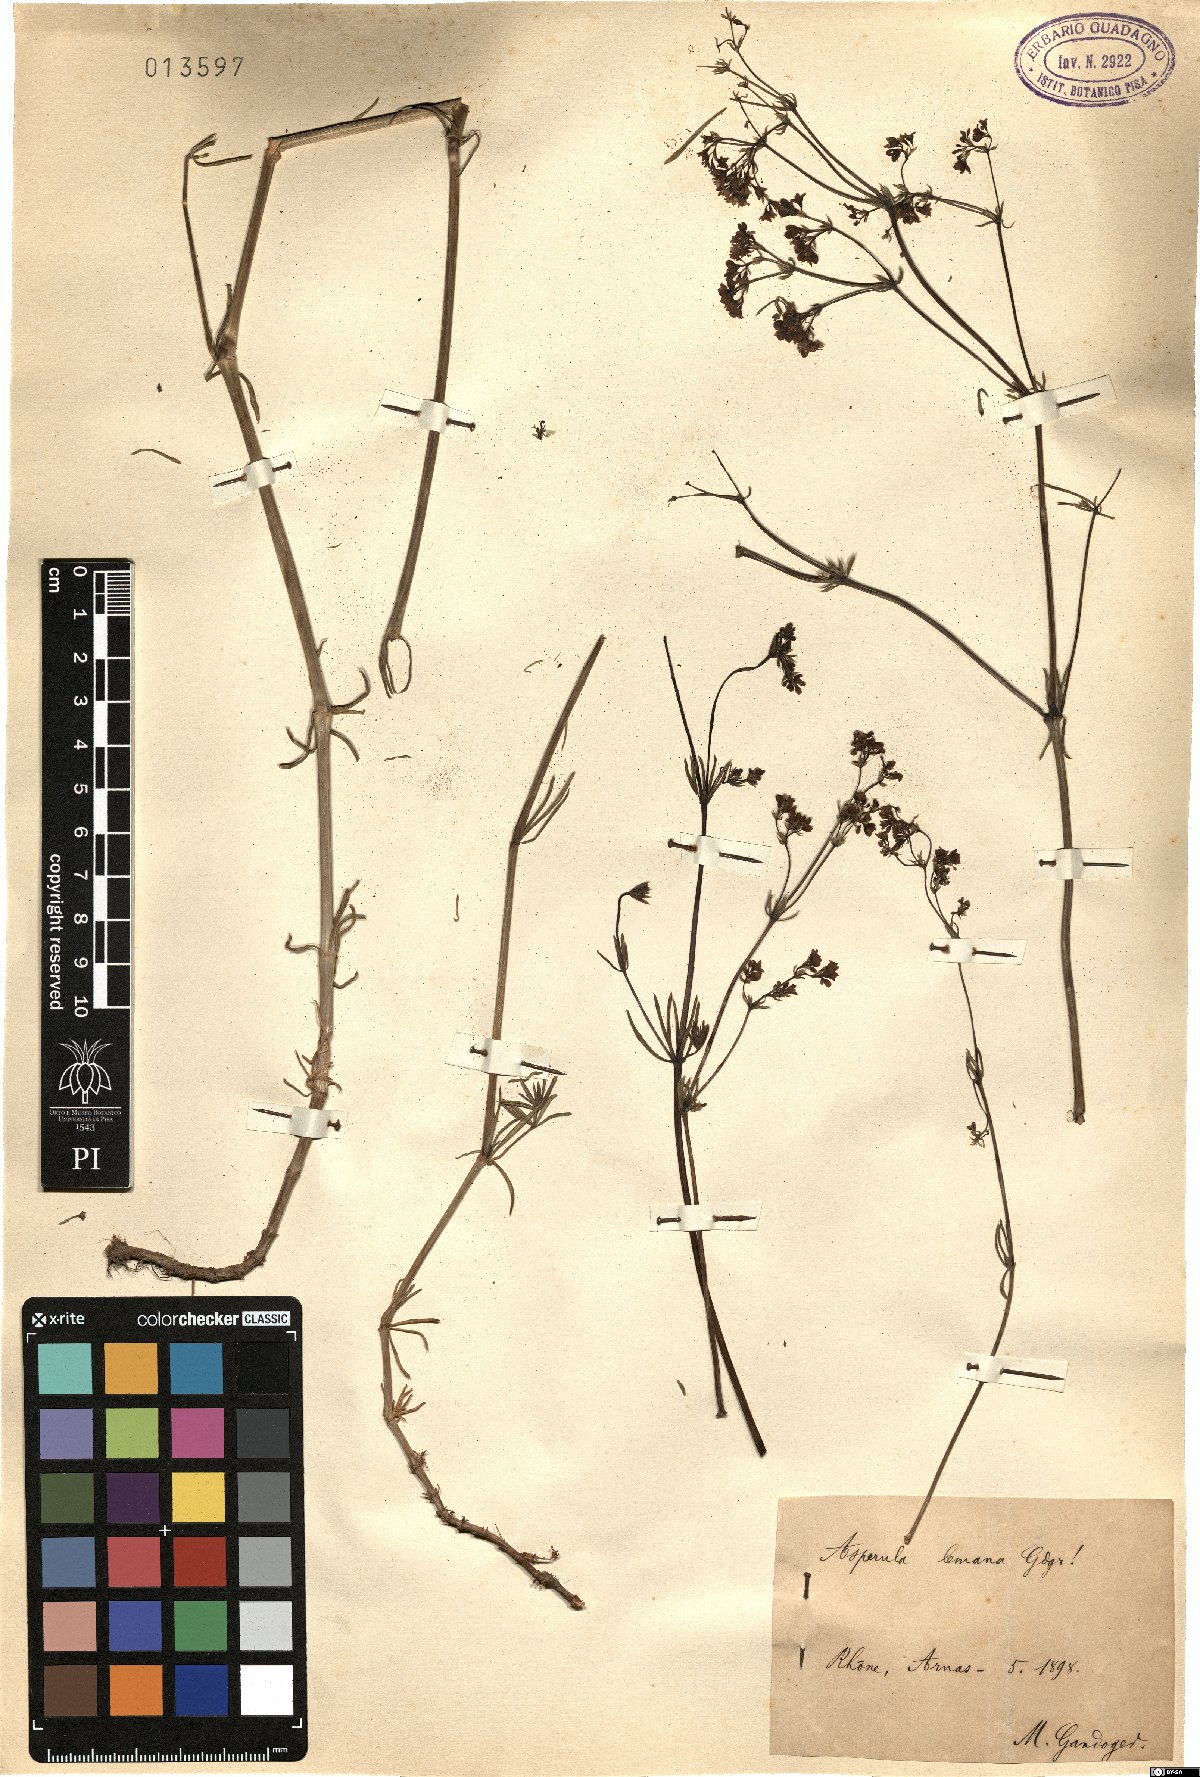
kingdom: Plantae
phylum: Tracheophyta
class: Magnoliopsida
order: Gentianales
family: Rubiaceae
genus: Asperula
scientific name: Asperula
